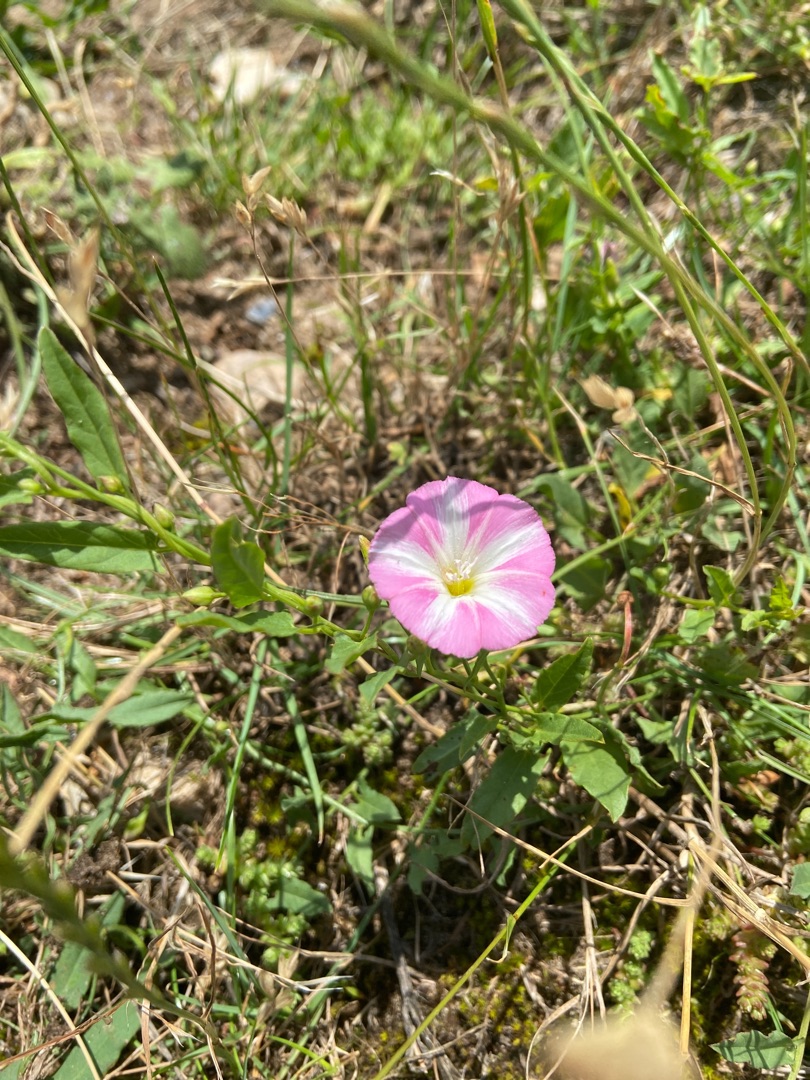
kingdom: Plantae
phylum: Tracheophyta
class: Magnoliopsida
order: Solanales
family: Convolvulaceae
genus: Convolvulus
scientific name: Convolvulus arvensis
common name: Ager-snerle
